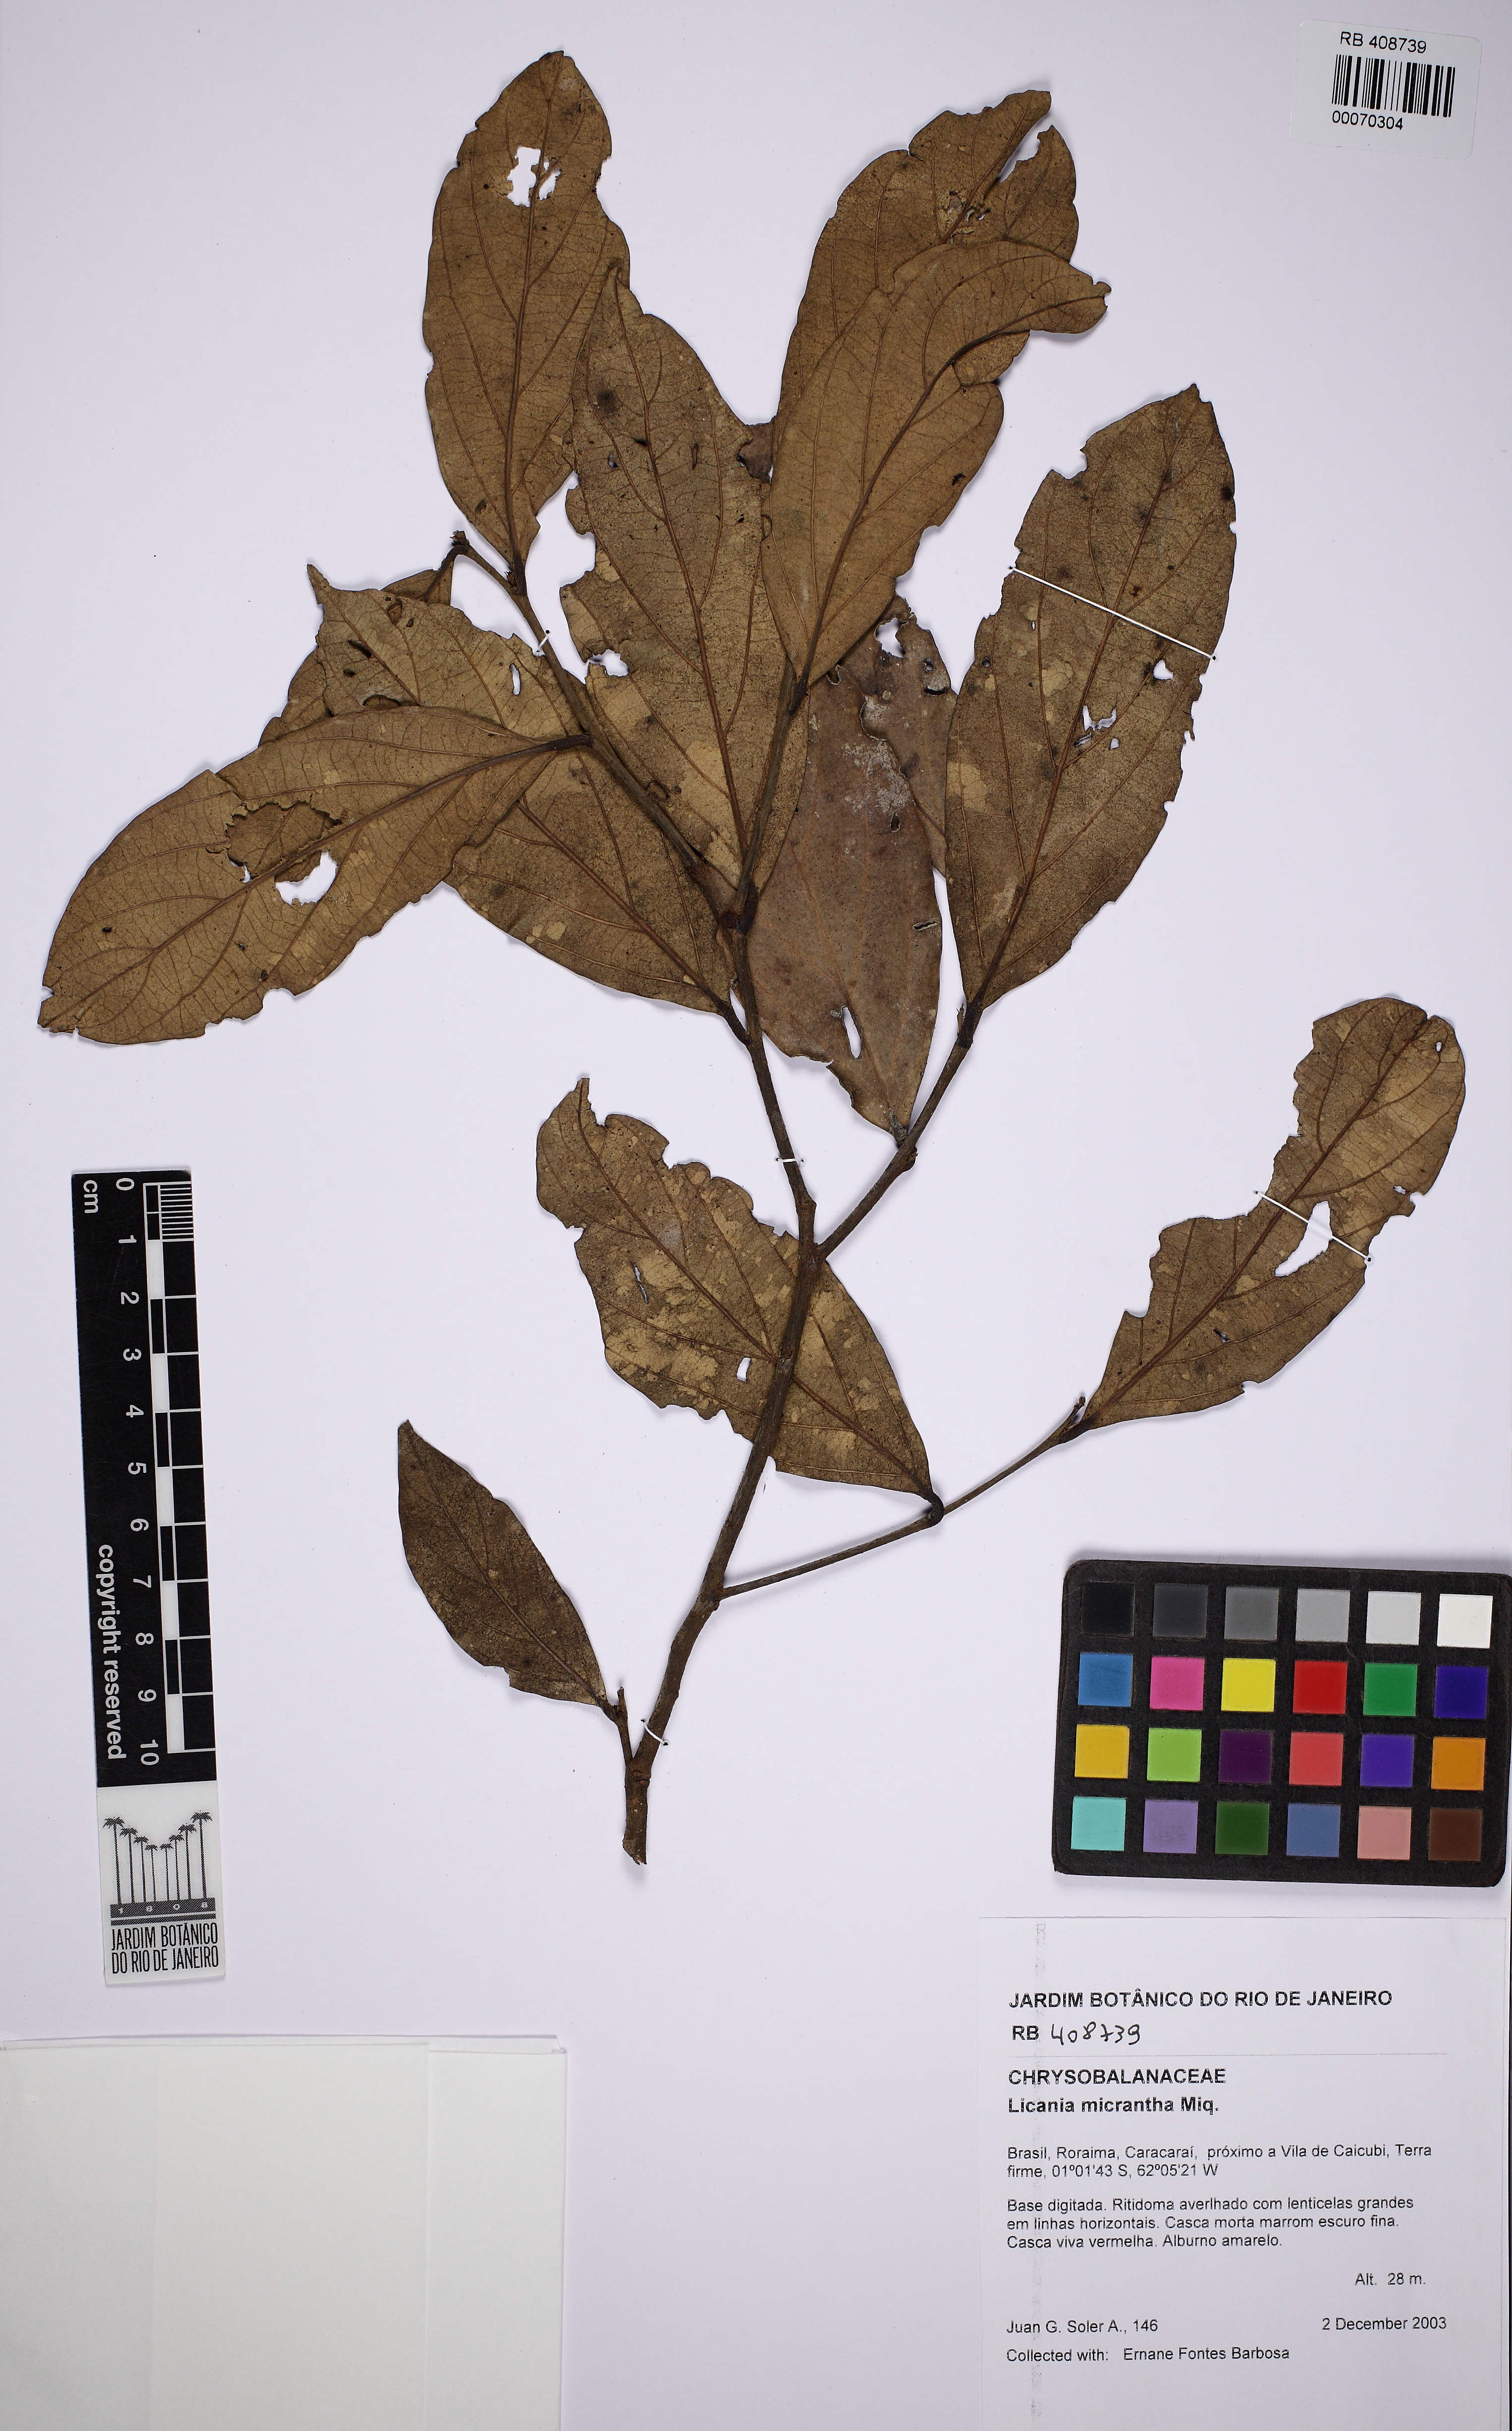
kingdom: Plantae
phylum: Tracheophyta
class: Magnoliopsida
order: Malpighiales
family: Chrysobalanaceae
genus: Licania
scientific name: Licania micrantha
